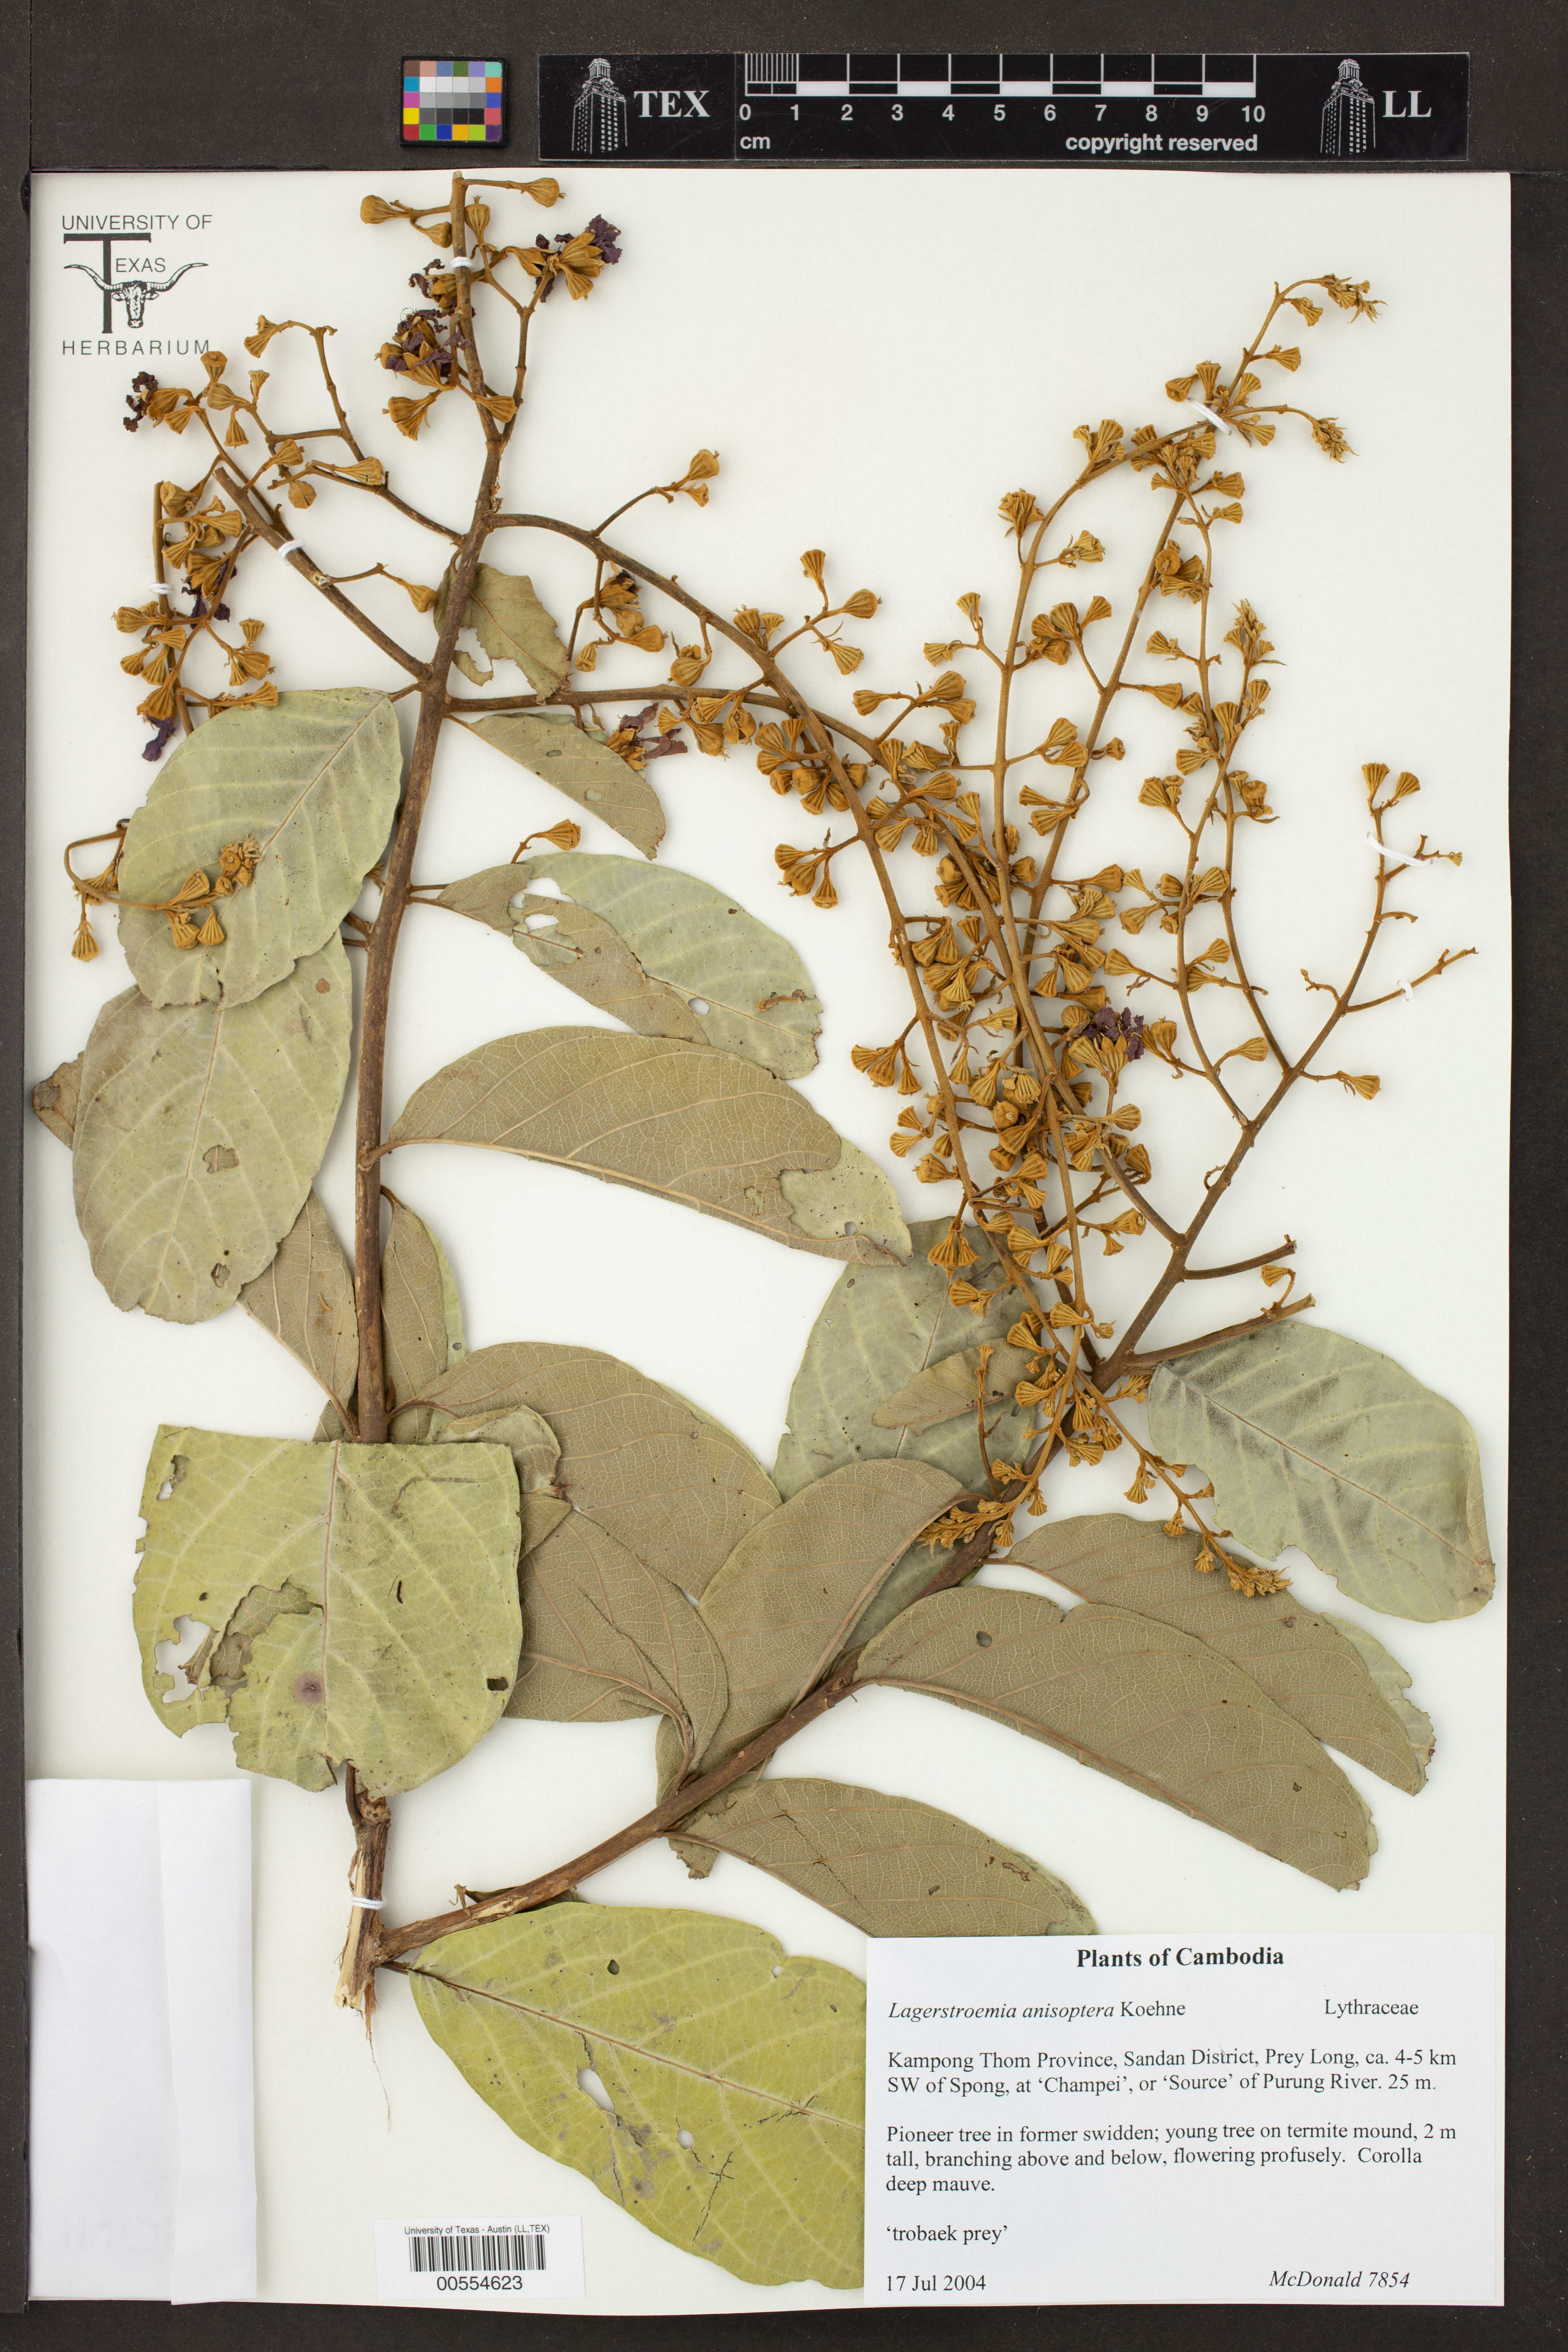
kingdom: Plantae
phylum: Tracheophyta
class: Magnoliopsida
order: Myrtales
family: Lythraceae
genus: Lagerstroemia
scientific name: Lagerstroemia floribunda
